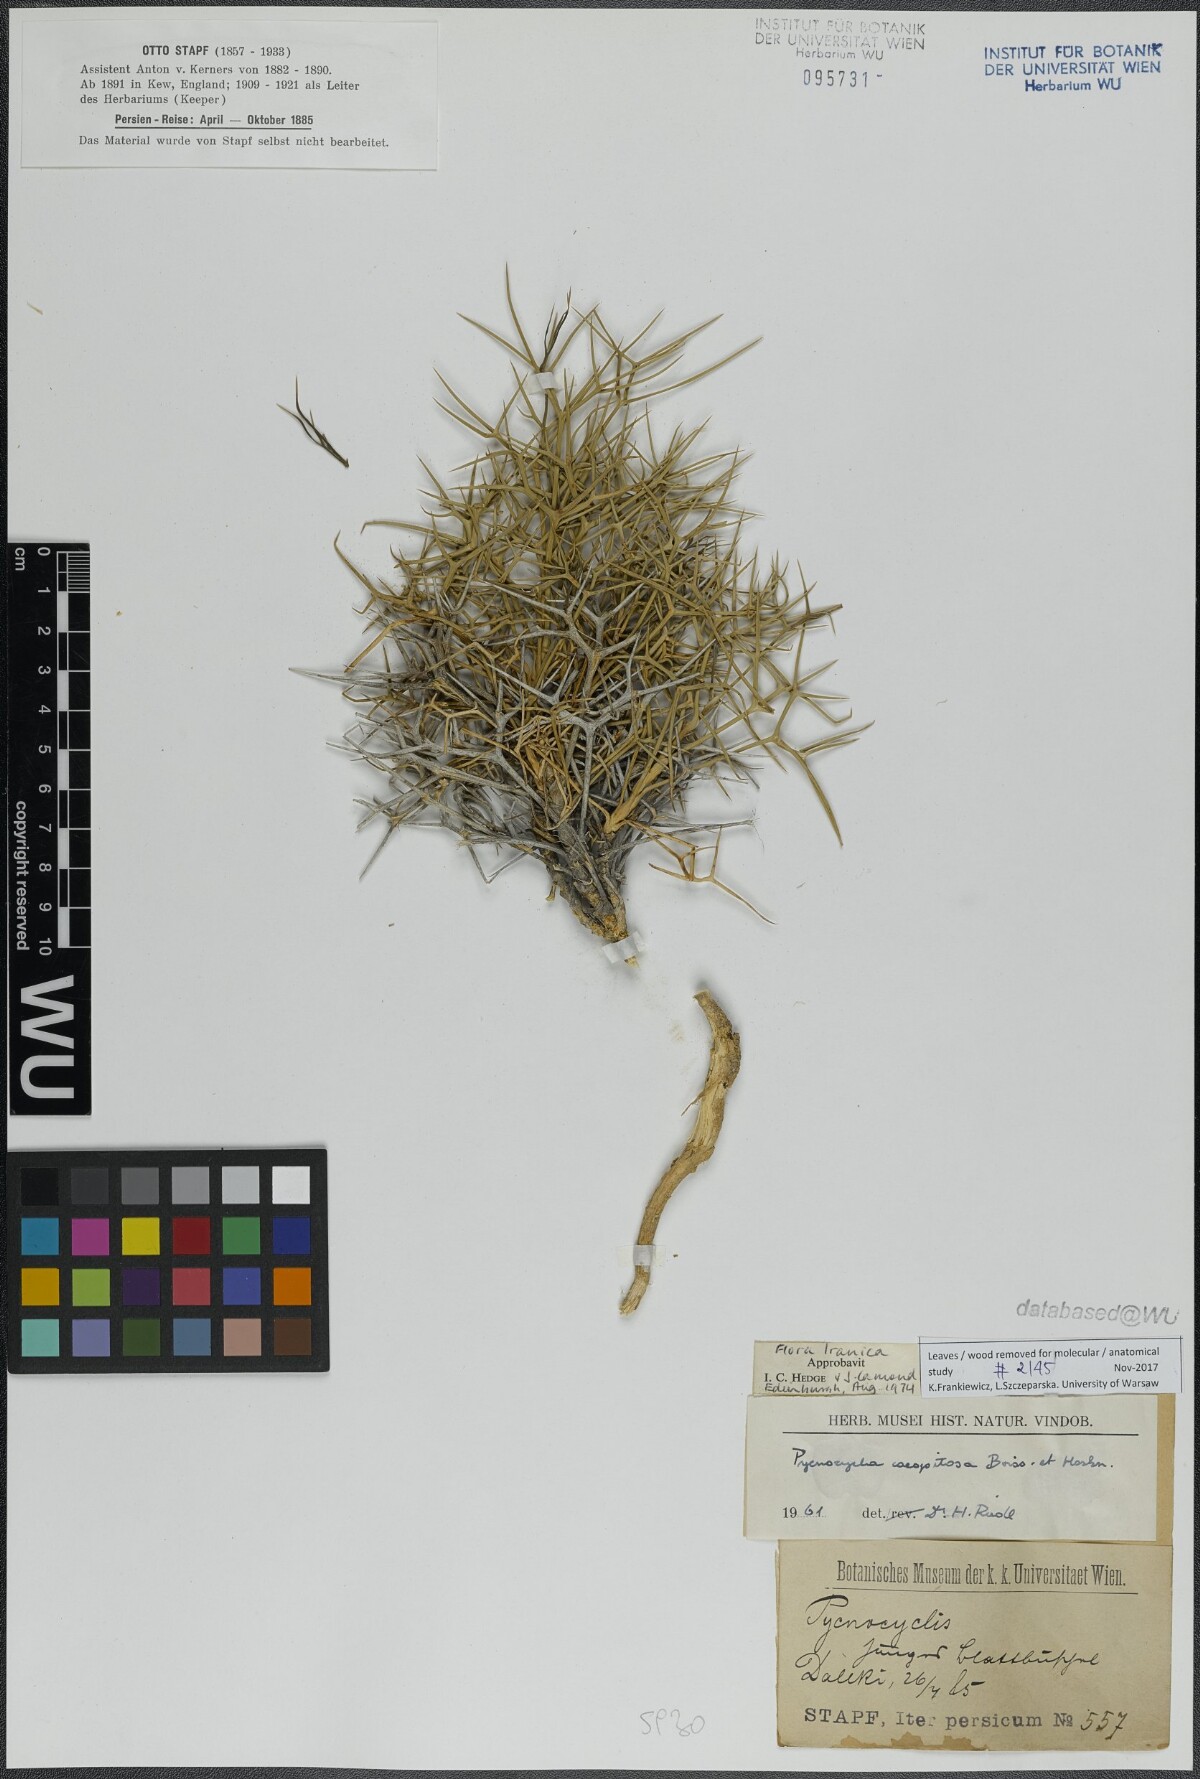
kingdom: Plantae
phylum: Tracheophyta
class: Magnoliopsida
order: Apiales
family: Apiaceae
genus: Pycnocycla
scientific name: Pycnocycla cespitosa
